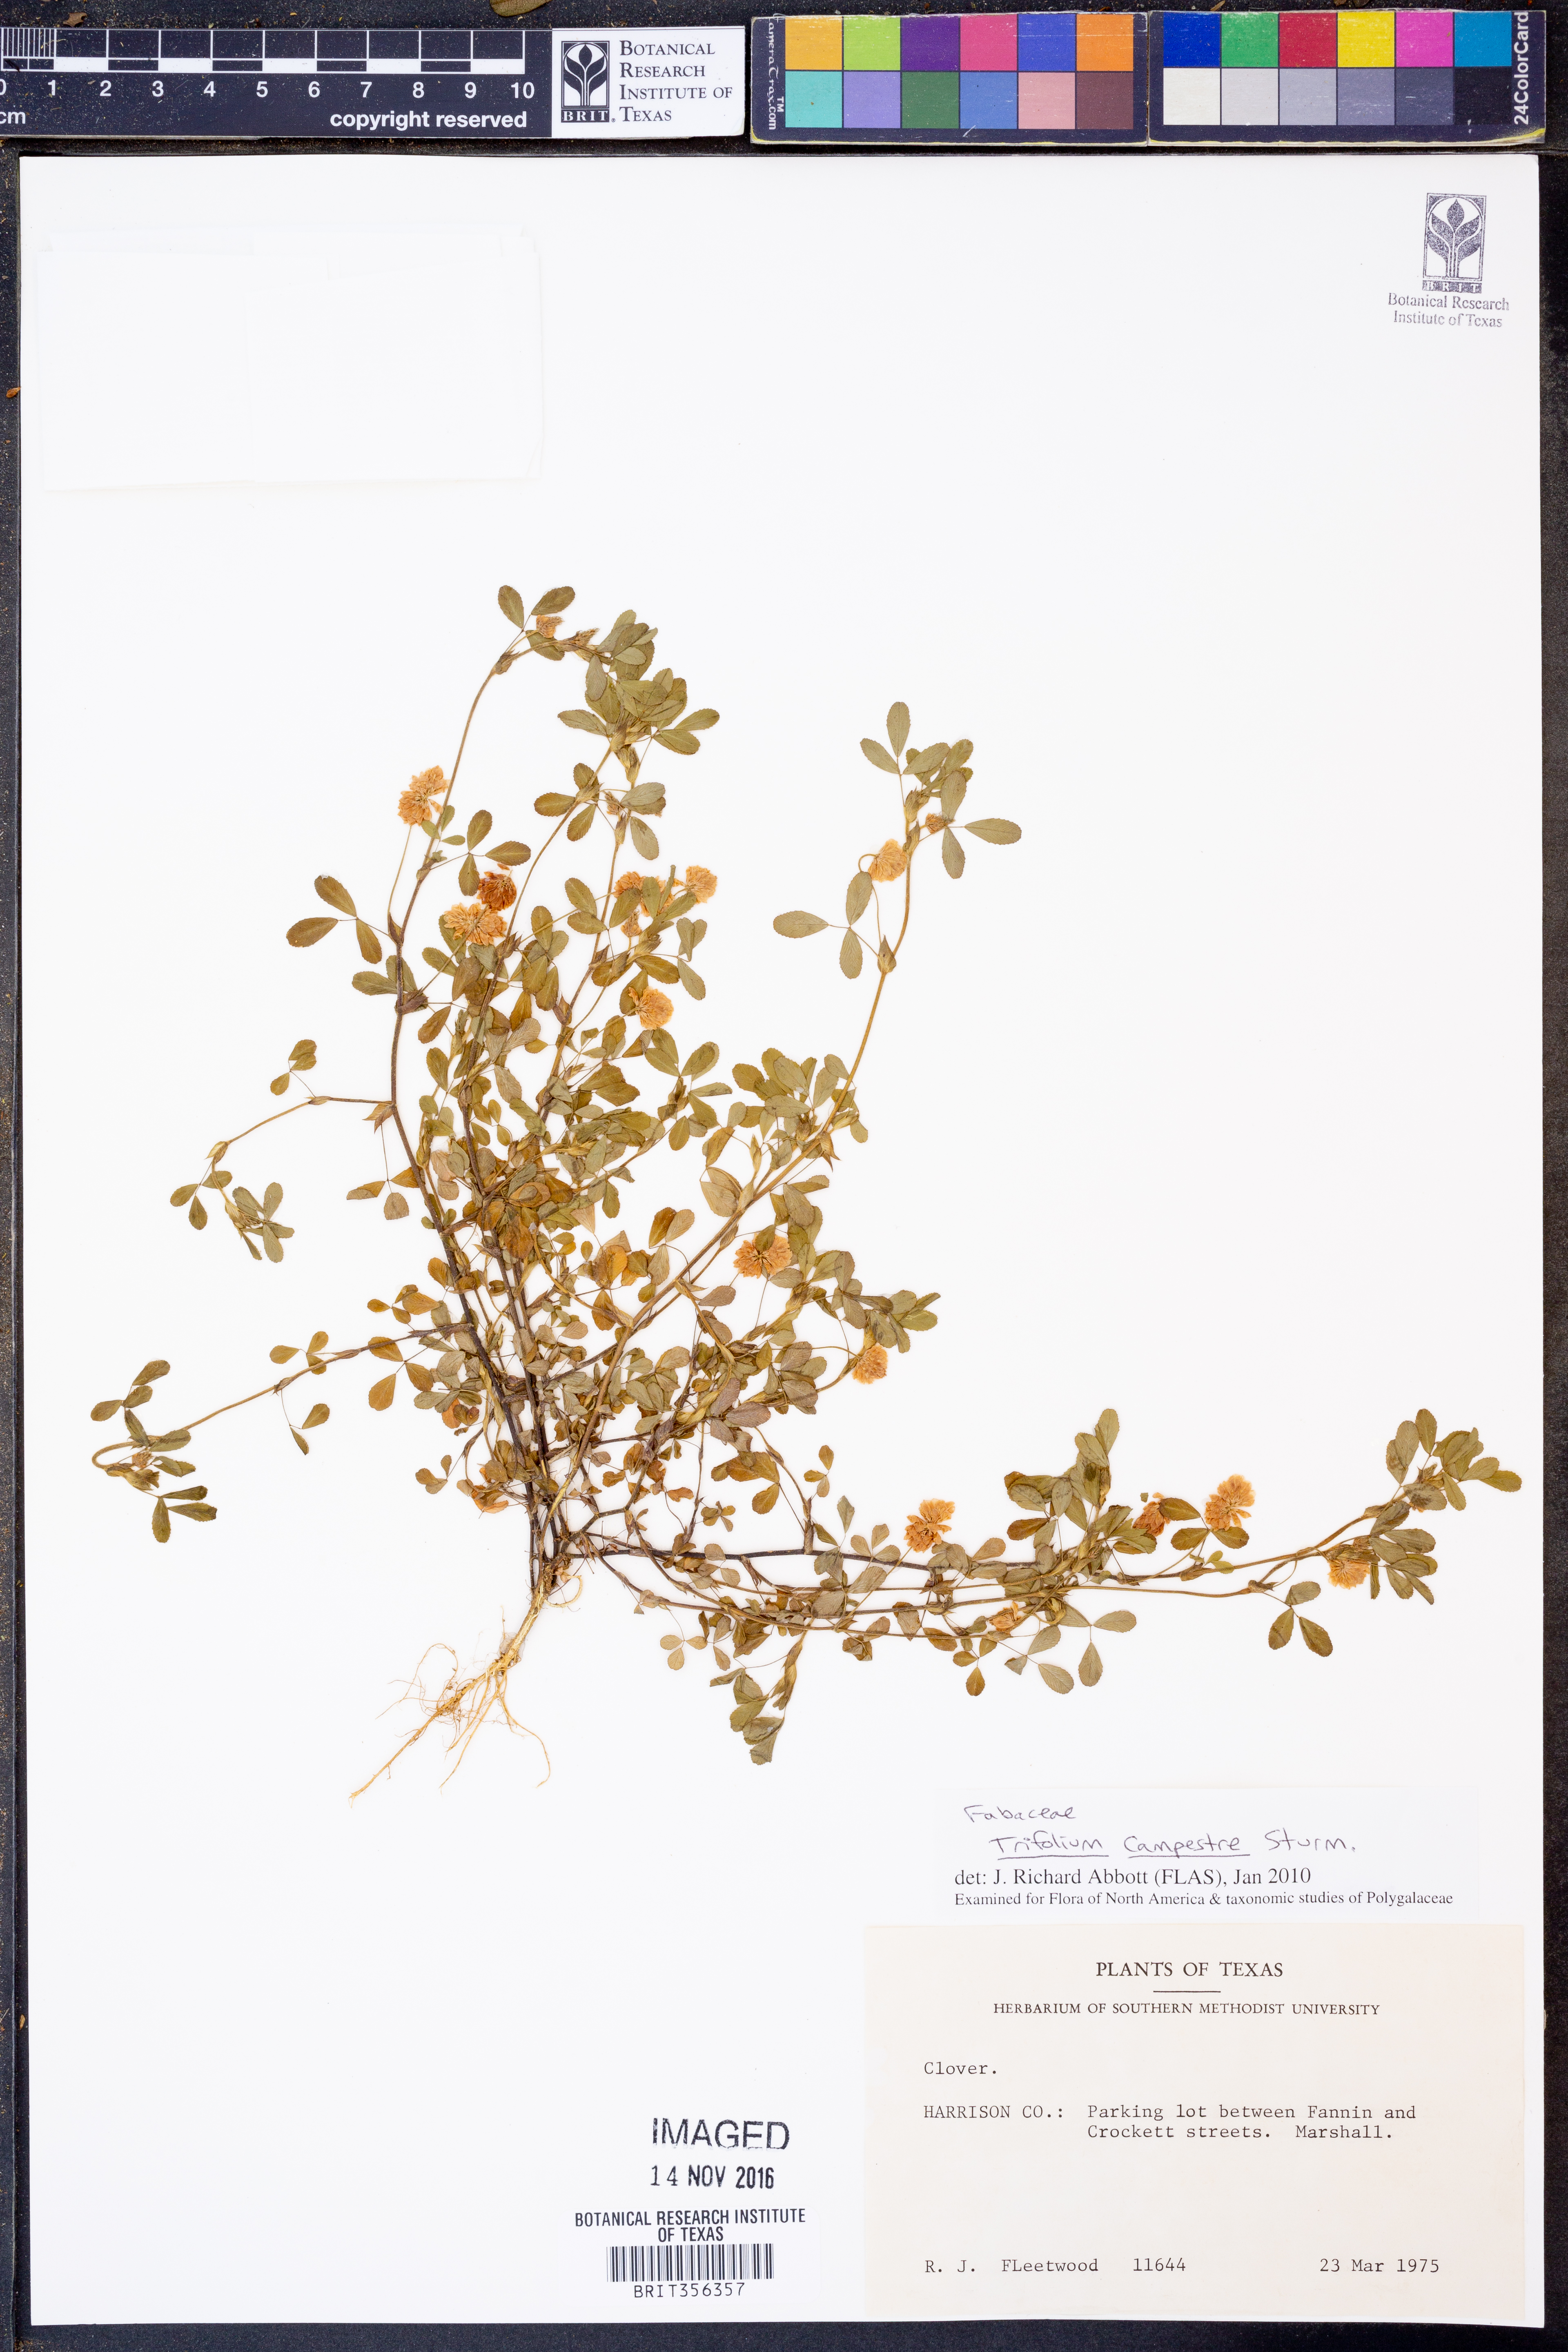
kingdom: Plantae
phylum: Tracheophyta
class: Magnoliopsida
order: Fabales
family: Fabaceae
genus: Trifolium
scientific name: Trifolium campestre
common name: Field clover
